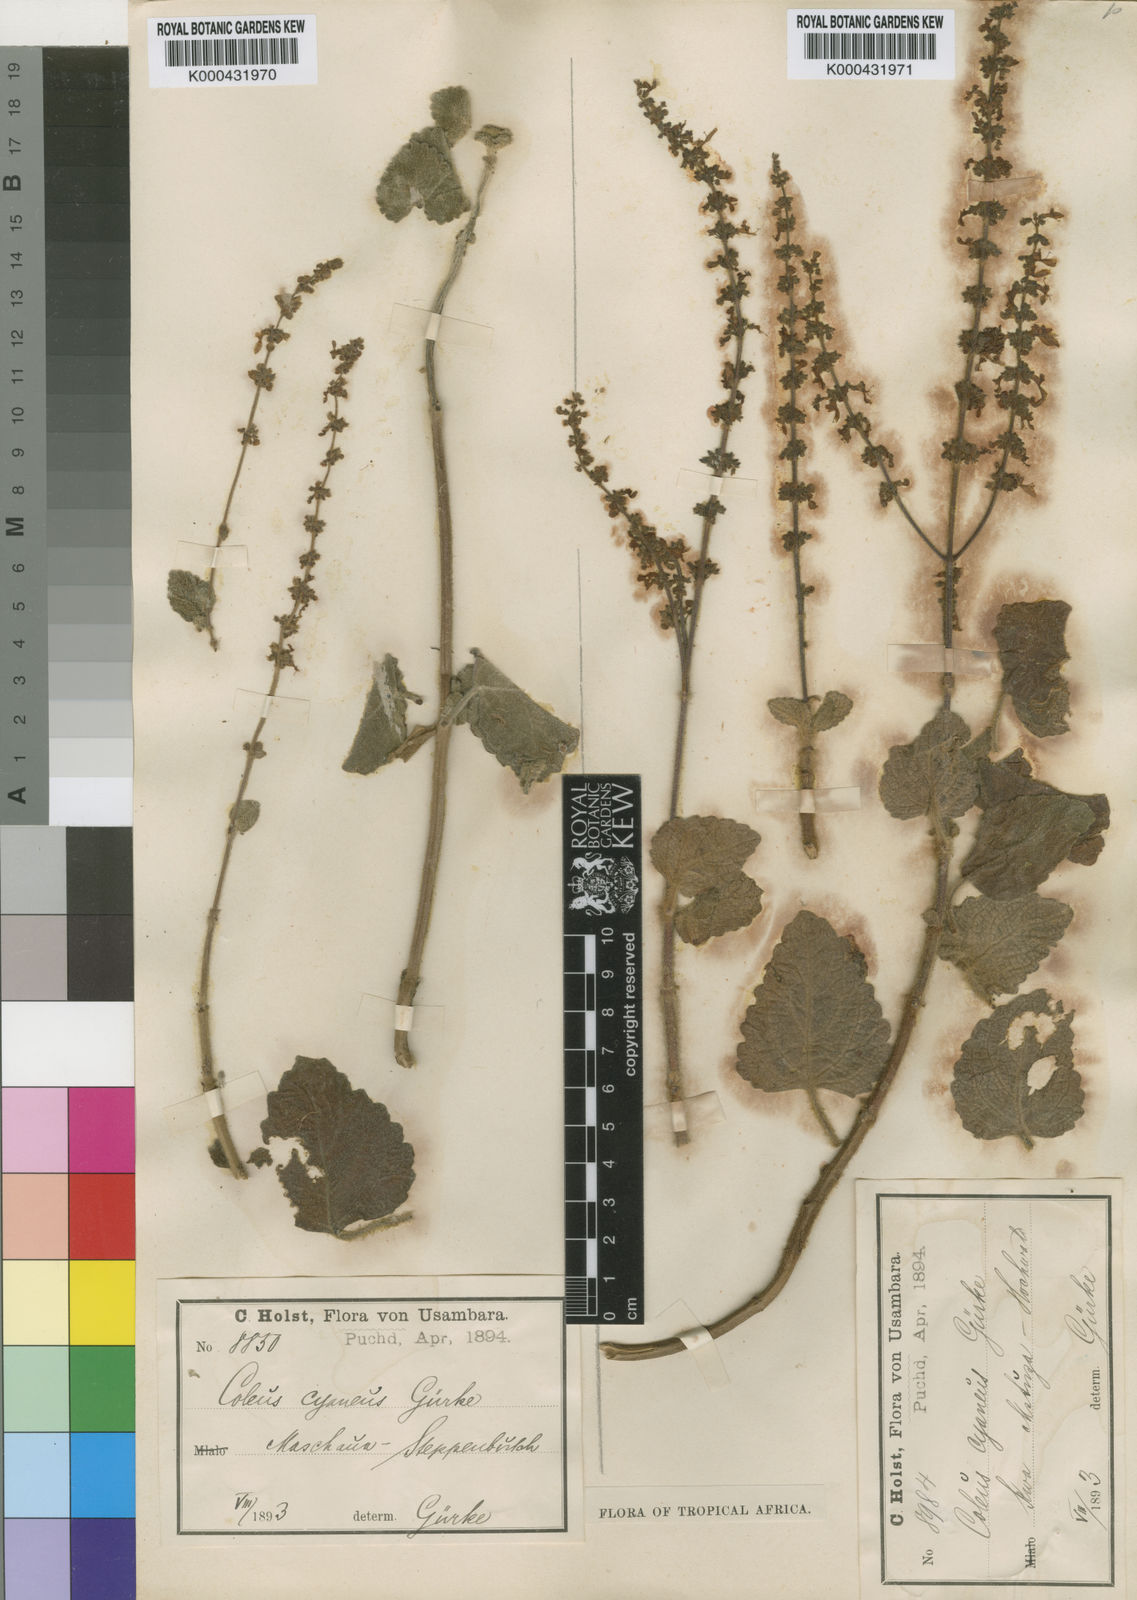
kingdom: Plantae
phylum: Tracheophyta
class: Magnoliopsida
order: Lamiales
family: Lamiaceae
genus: Coleus
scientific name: Coleus hadiensis
